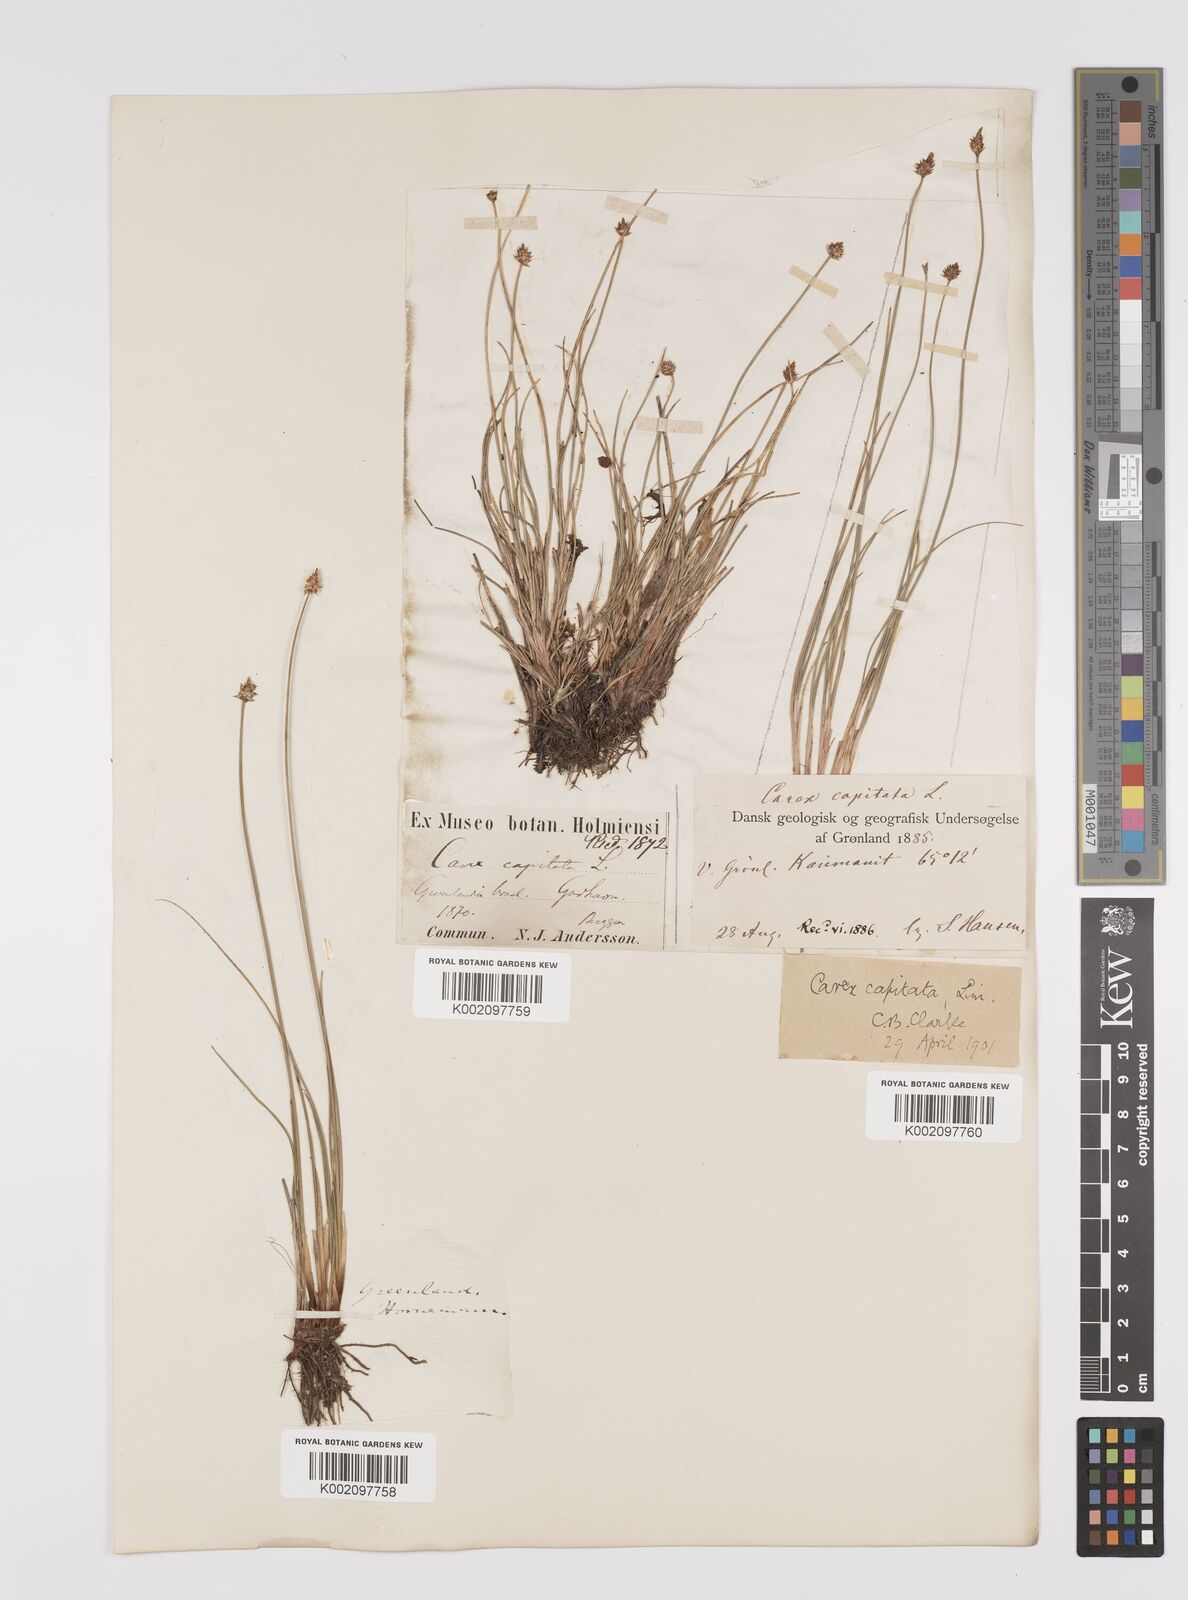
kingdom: Plantae
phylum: Tracheophyta
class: Liliopsida
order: Poales
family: Cyperaceae
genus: Carex
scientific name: Carex capitata
